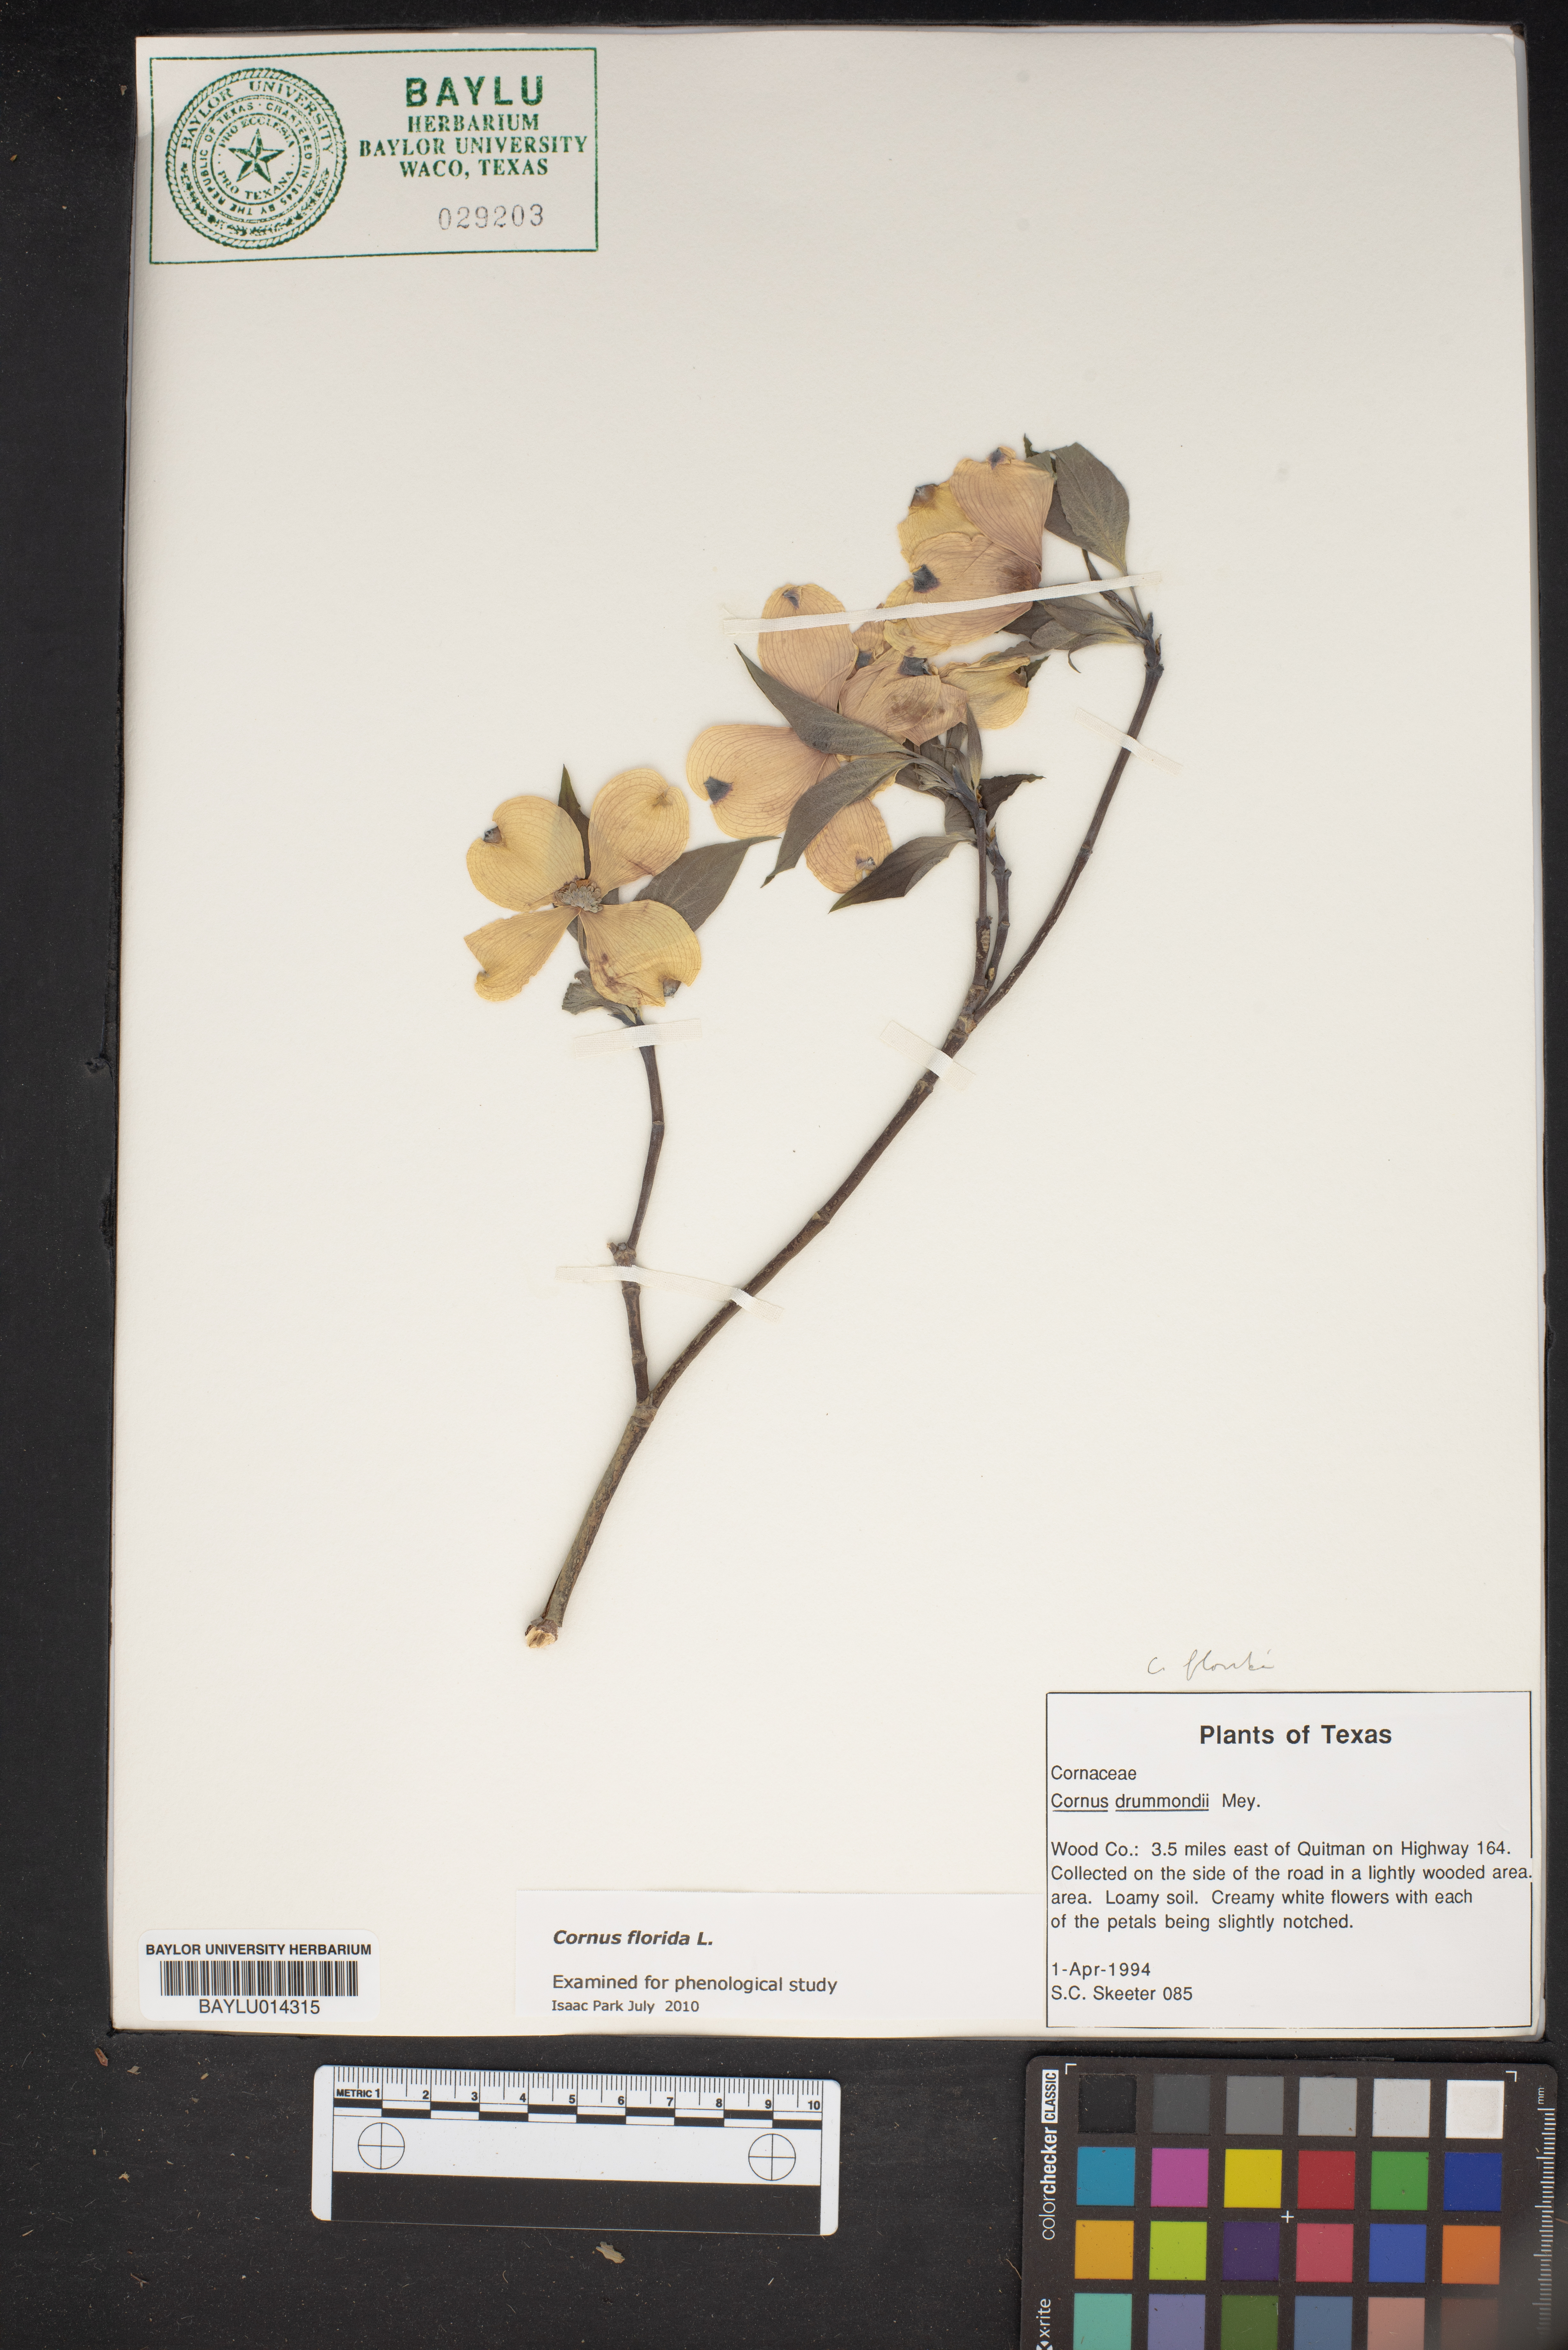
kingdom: Plantae
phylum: Tracheophyta
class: Magnoliopsida
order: Cornales
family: Cornaceae
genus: Cornus
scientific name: Cornus florida
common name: Flowering dogwood
